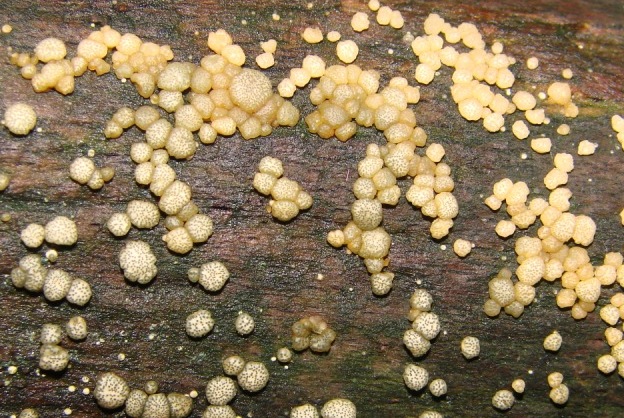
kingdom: Fungi
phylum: Ascomycota
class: Sordariomycetes
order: Hypocreales
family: Hypocreaceae
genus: Trichoderma
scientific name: Trichoderma gelatinosum
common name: geleagtig kødkerne
